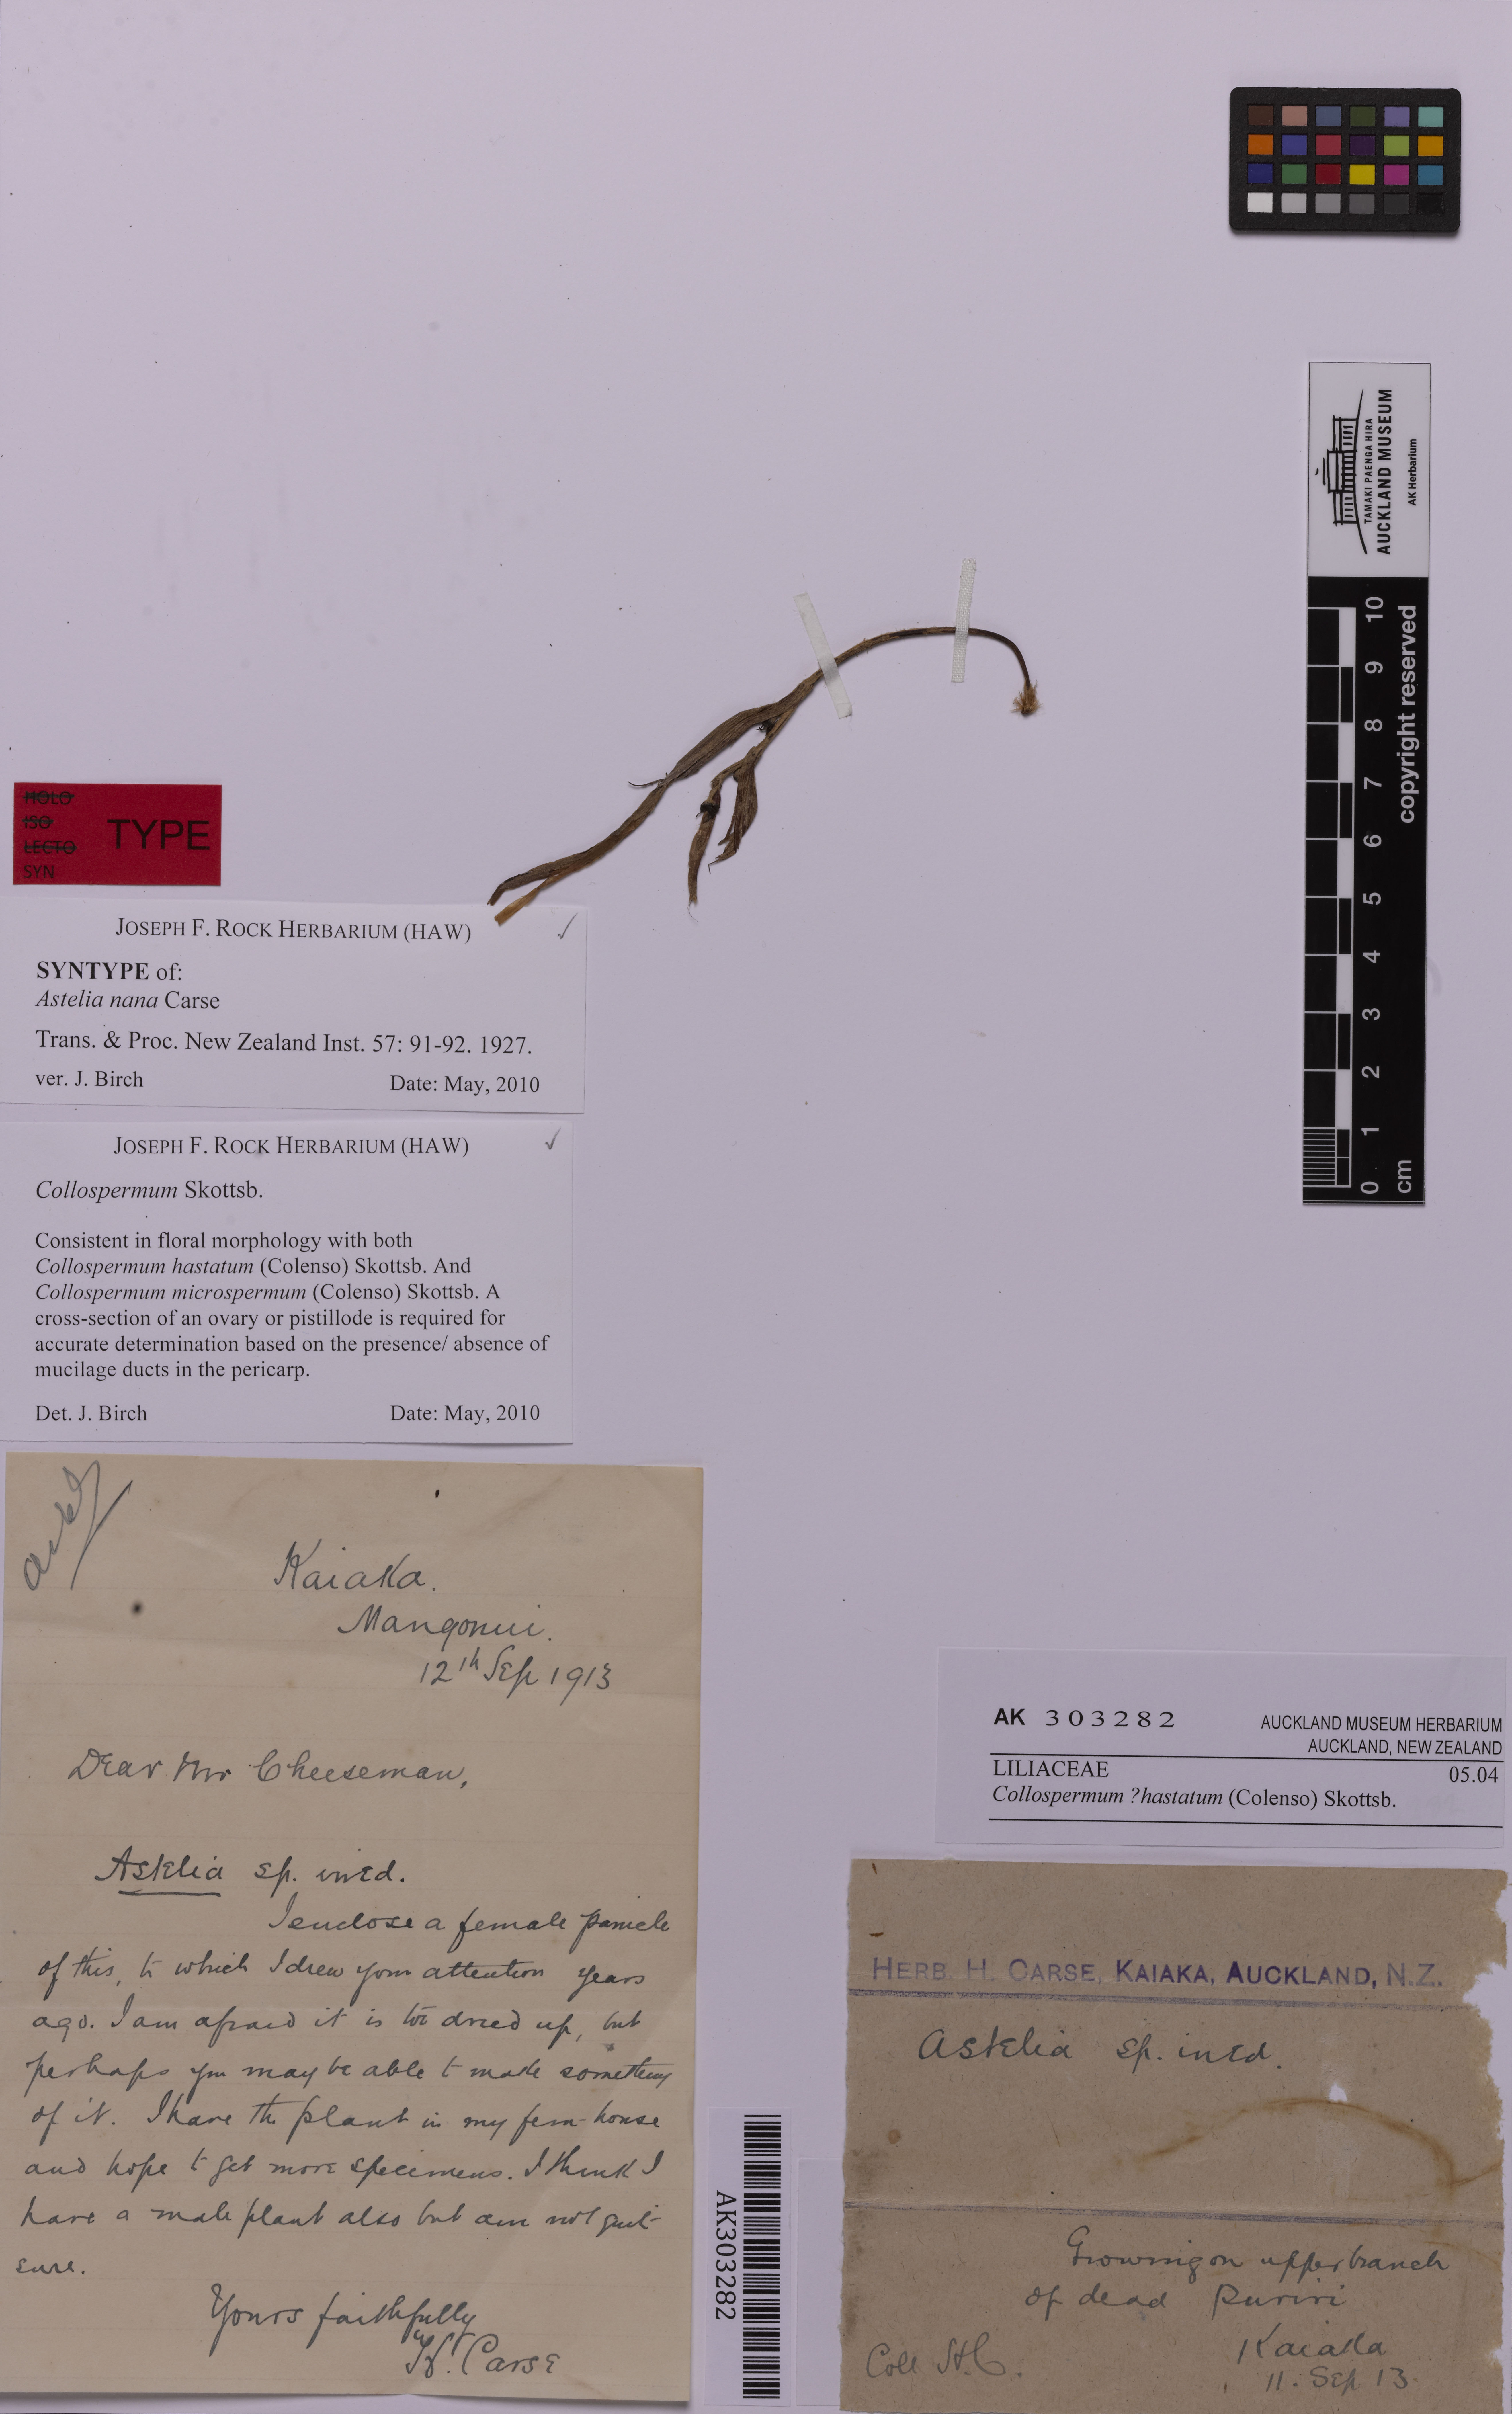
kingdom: Plantae
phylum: Tracheophyta
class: Liliopsida
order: Asparagales
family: Asteliaceae
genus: Astelia
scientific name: Astelia hastata
